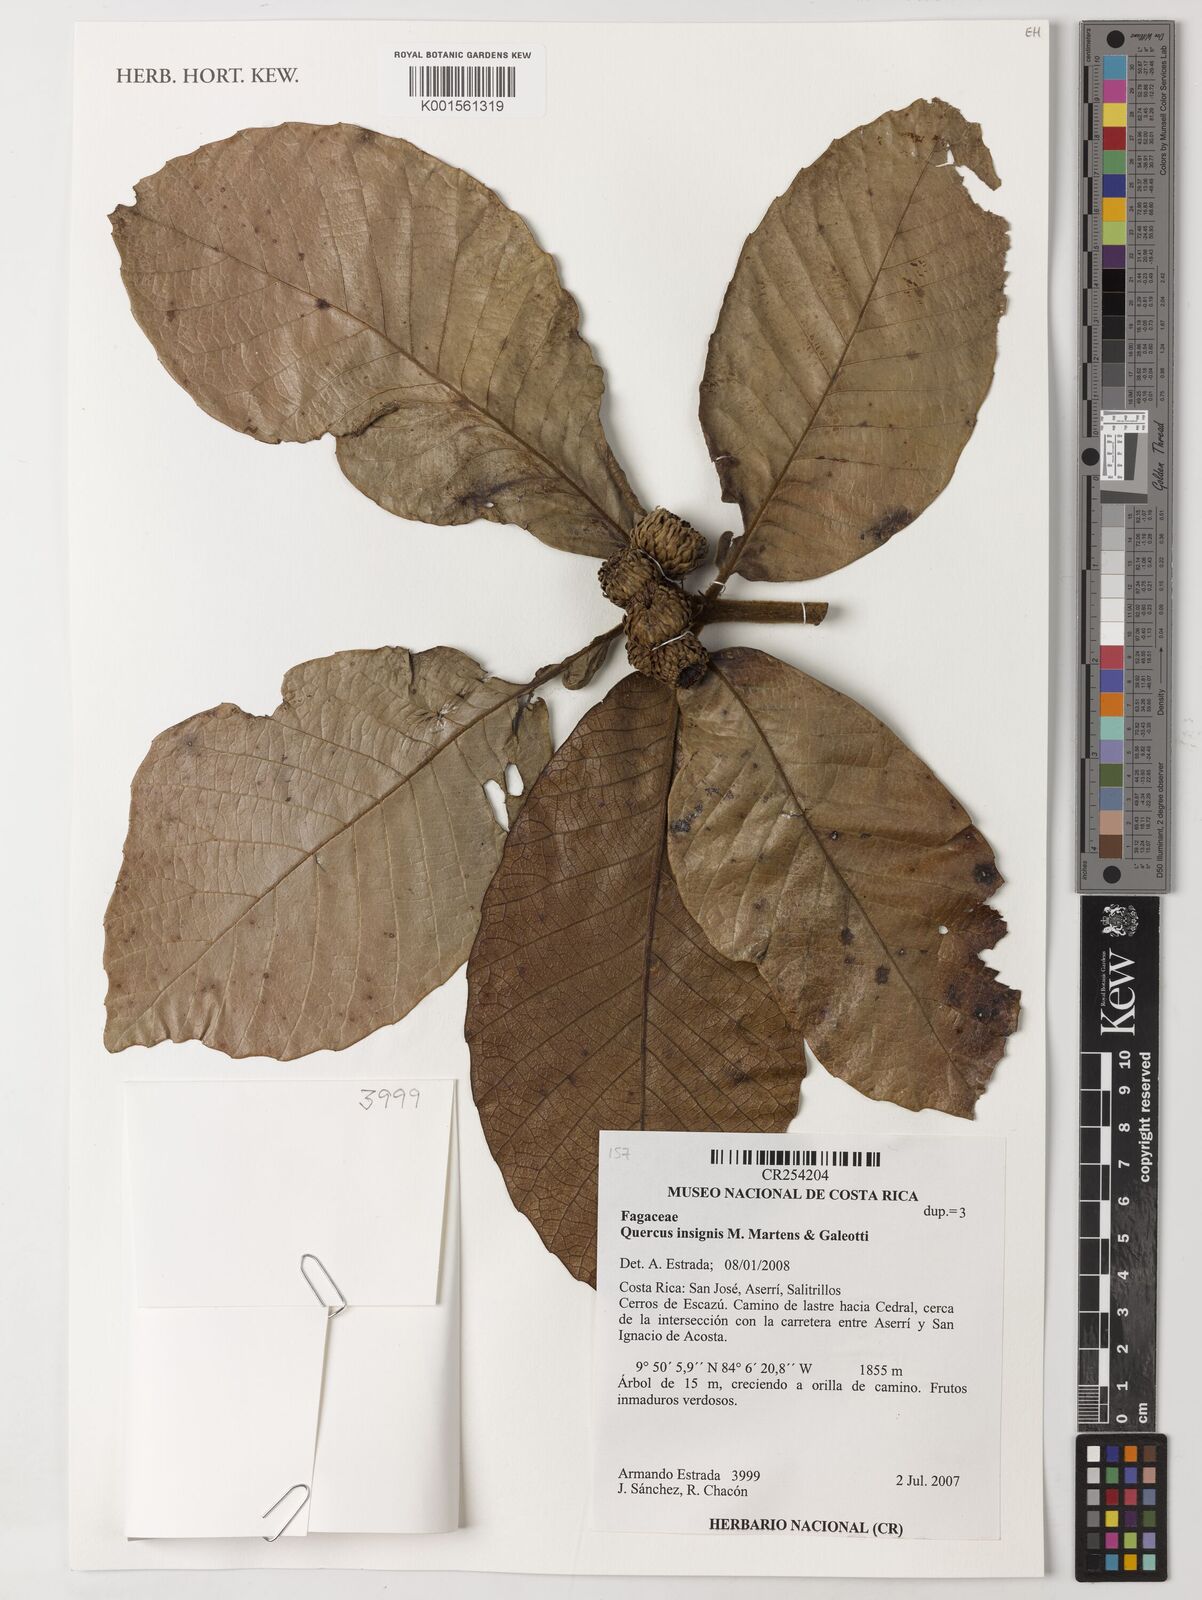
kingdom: Plantae
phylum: Tracheophyta
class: Magnoliopsida
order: Fagales
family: Fagaceae
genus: Quercus
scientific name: Quercus insignis
